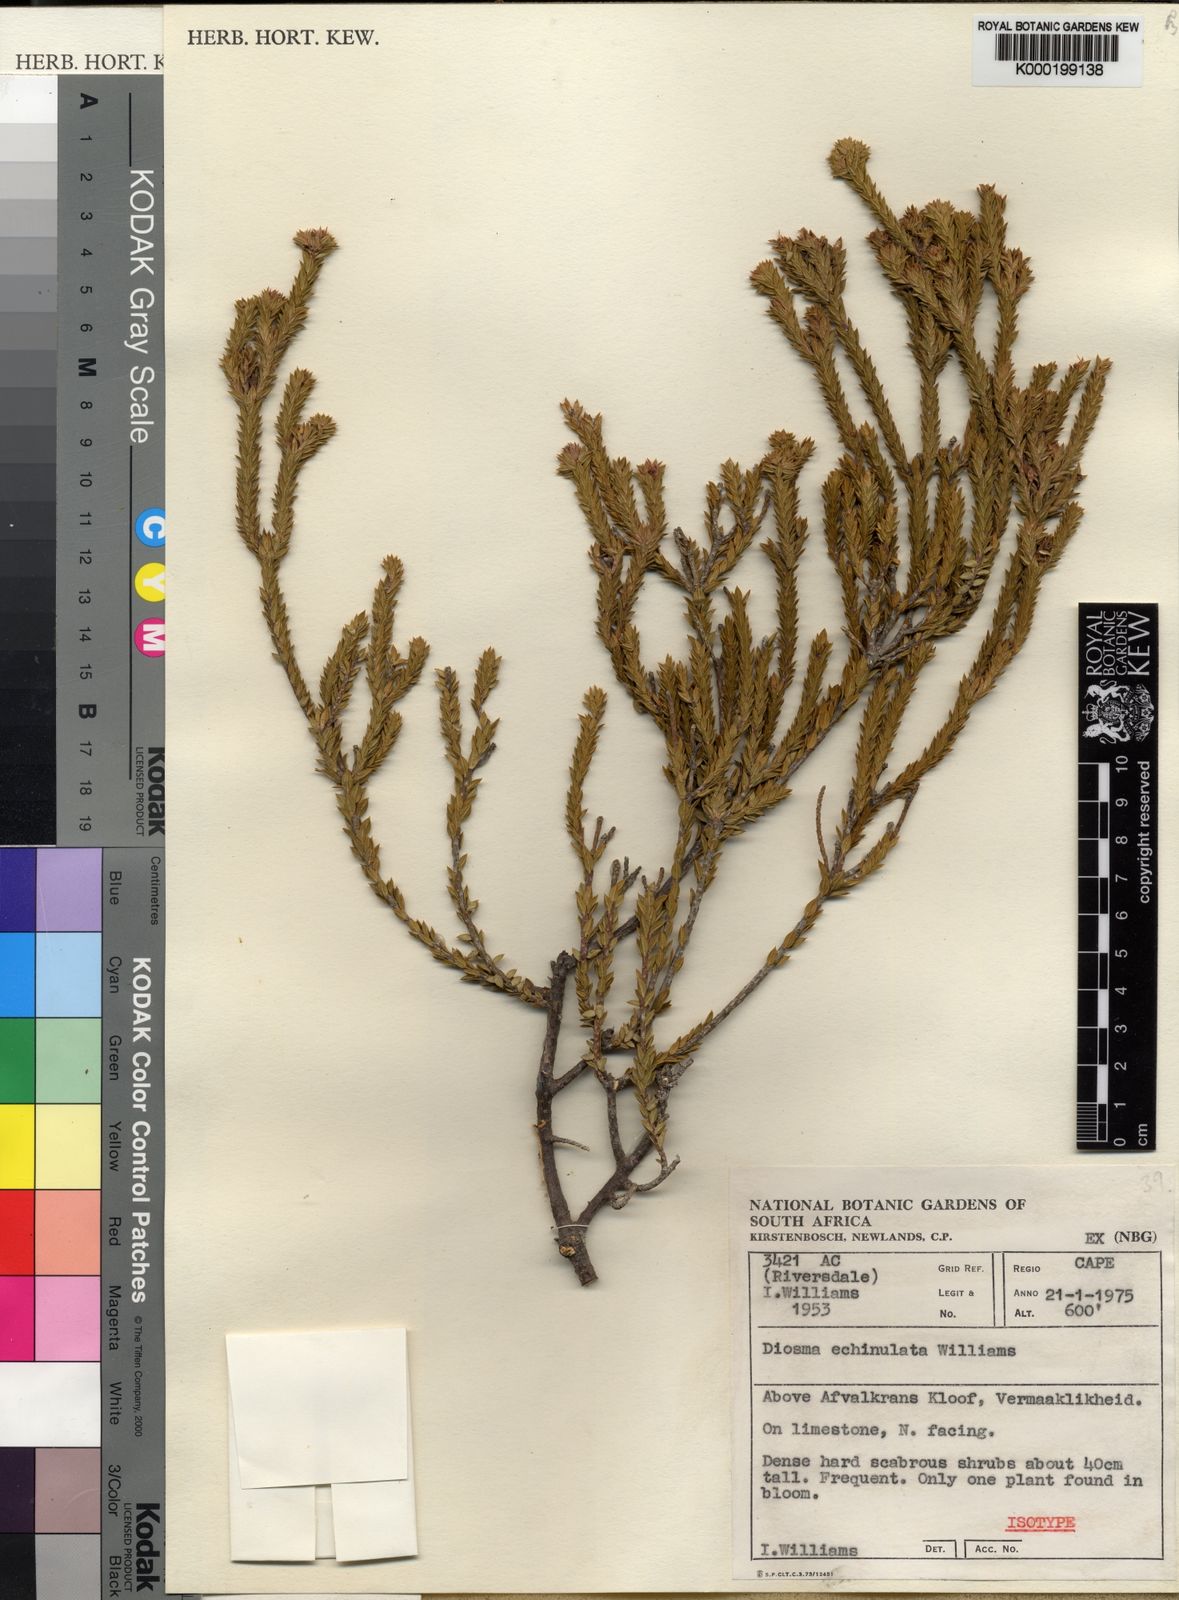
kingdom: Plantae
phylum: Tracheophyta
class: Magnoliopsida
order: Sapindales
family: Rutaceae
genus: Diosma
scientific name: Diosma echinulata
